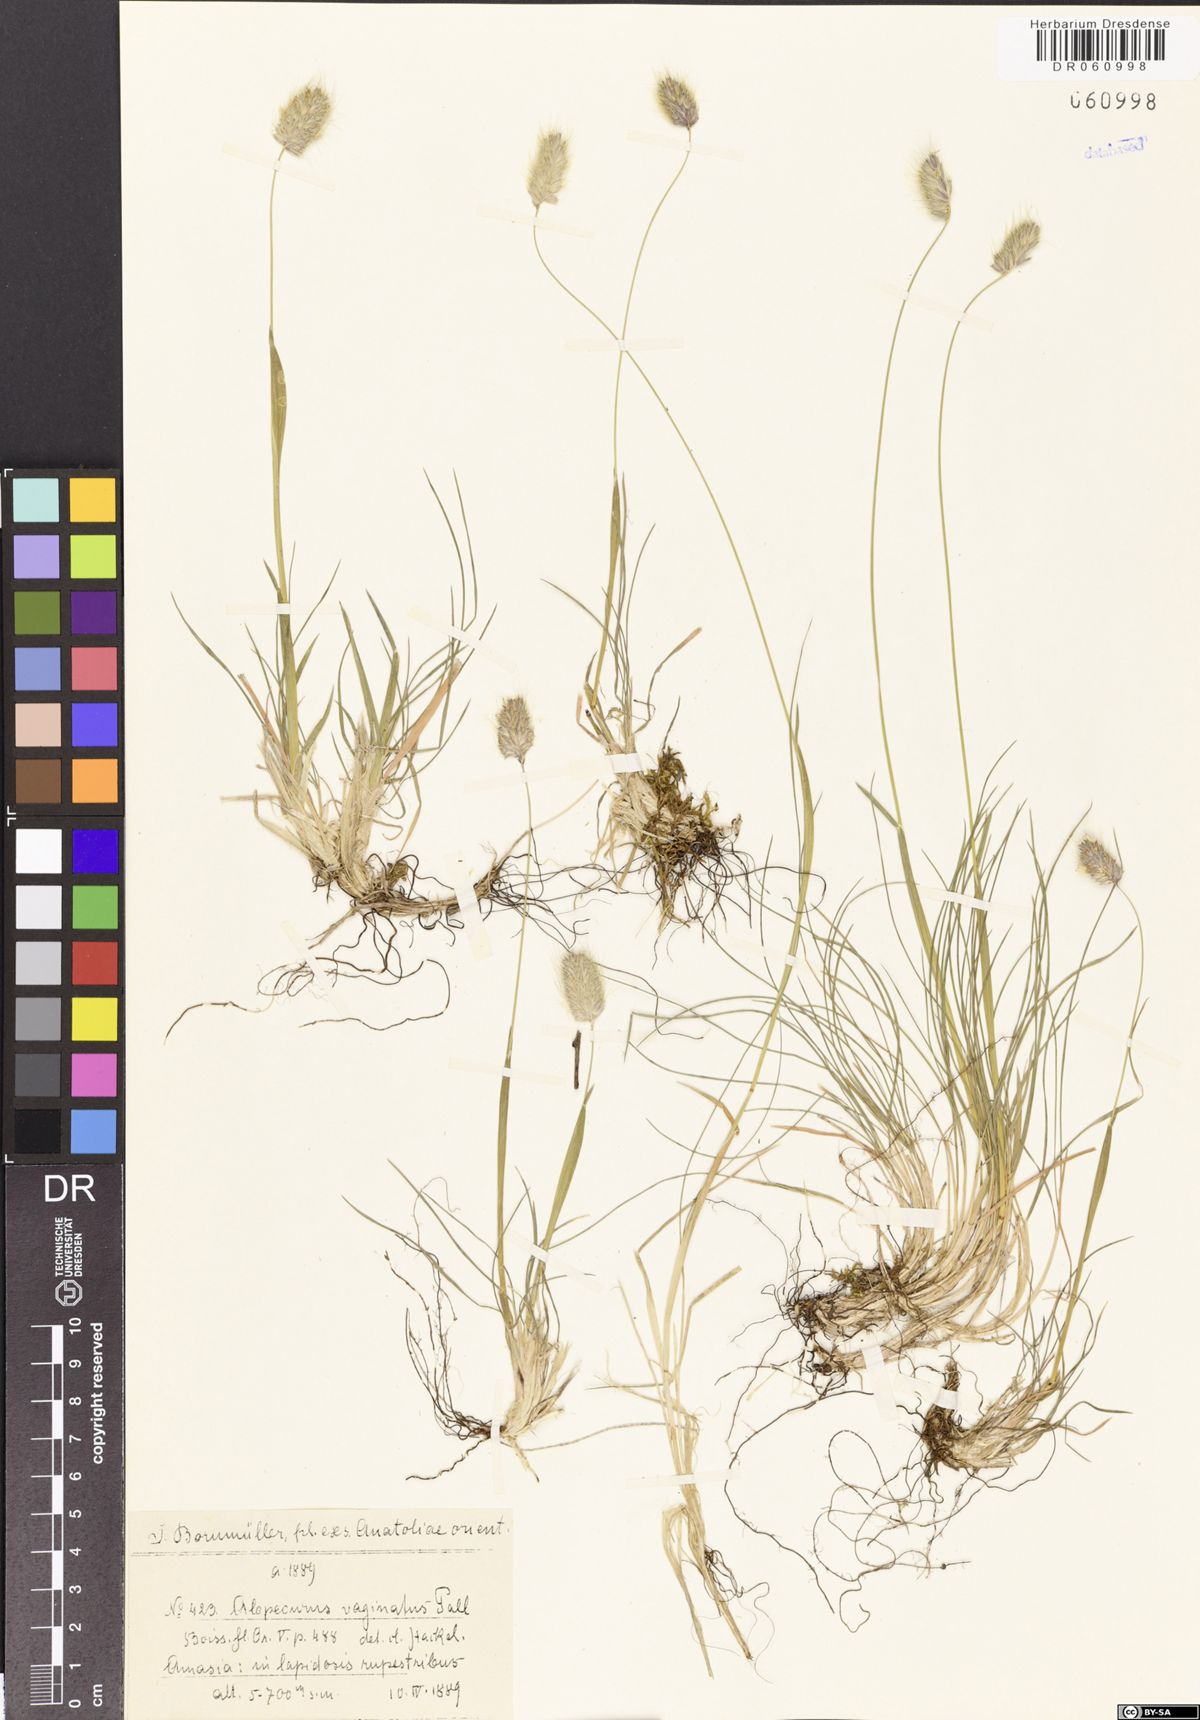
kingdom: Plantae
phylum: Tracheophyta
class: Liliopsida
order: Poales
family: Poaceae
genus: Alopecurus
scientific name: Alopecurus vaginatus
